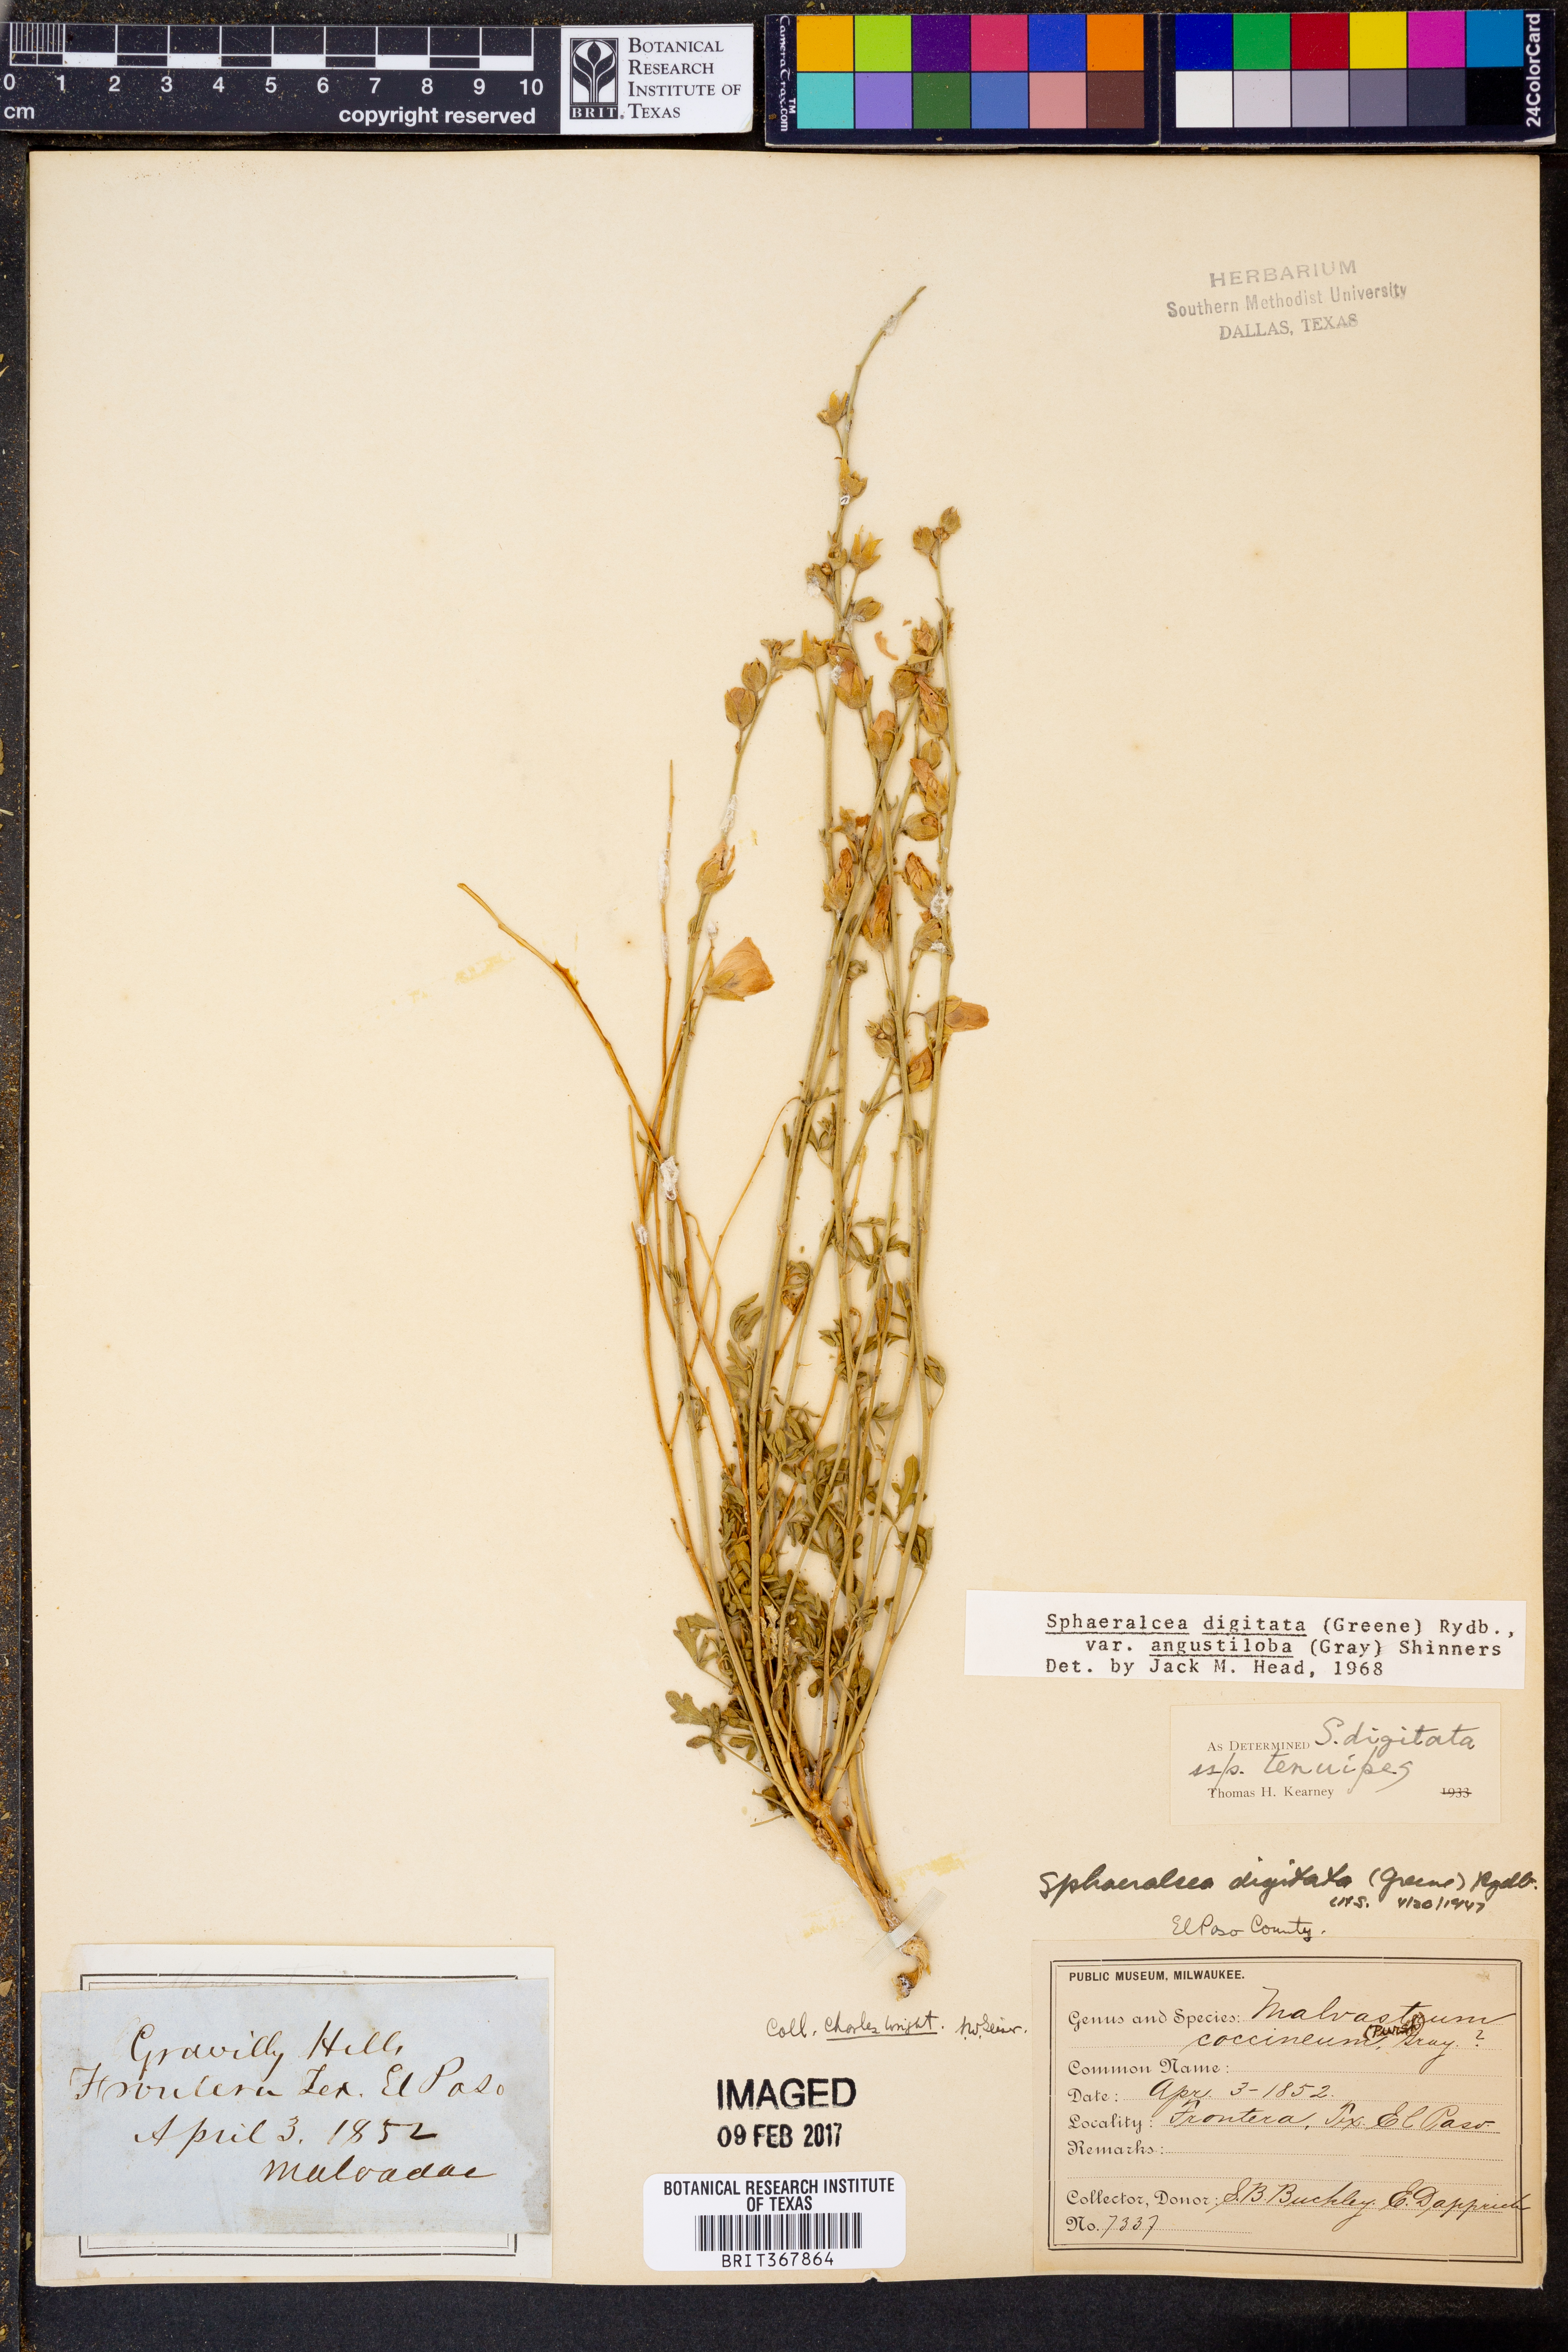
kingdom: Plantae
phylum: Tracheophyta
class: Magnoliopsida
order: Malvales
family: Malvaceae
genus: Sphaeralcea
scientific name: Sphaeralcea digitata
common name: Juniper-gobe-mallow
